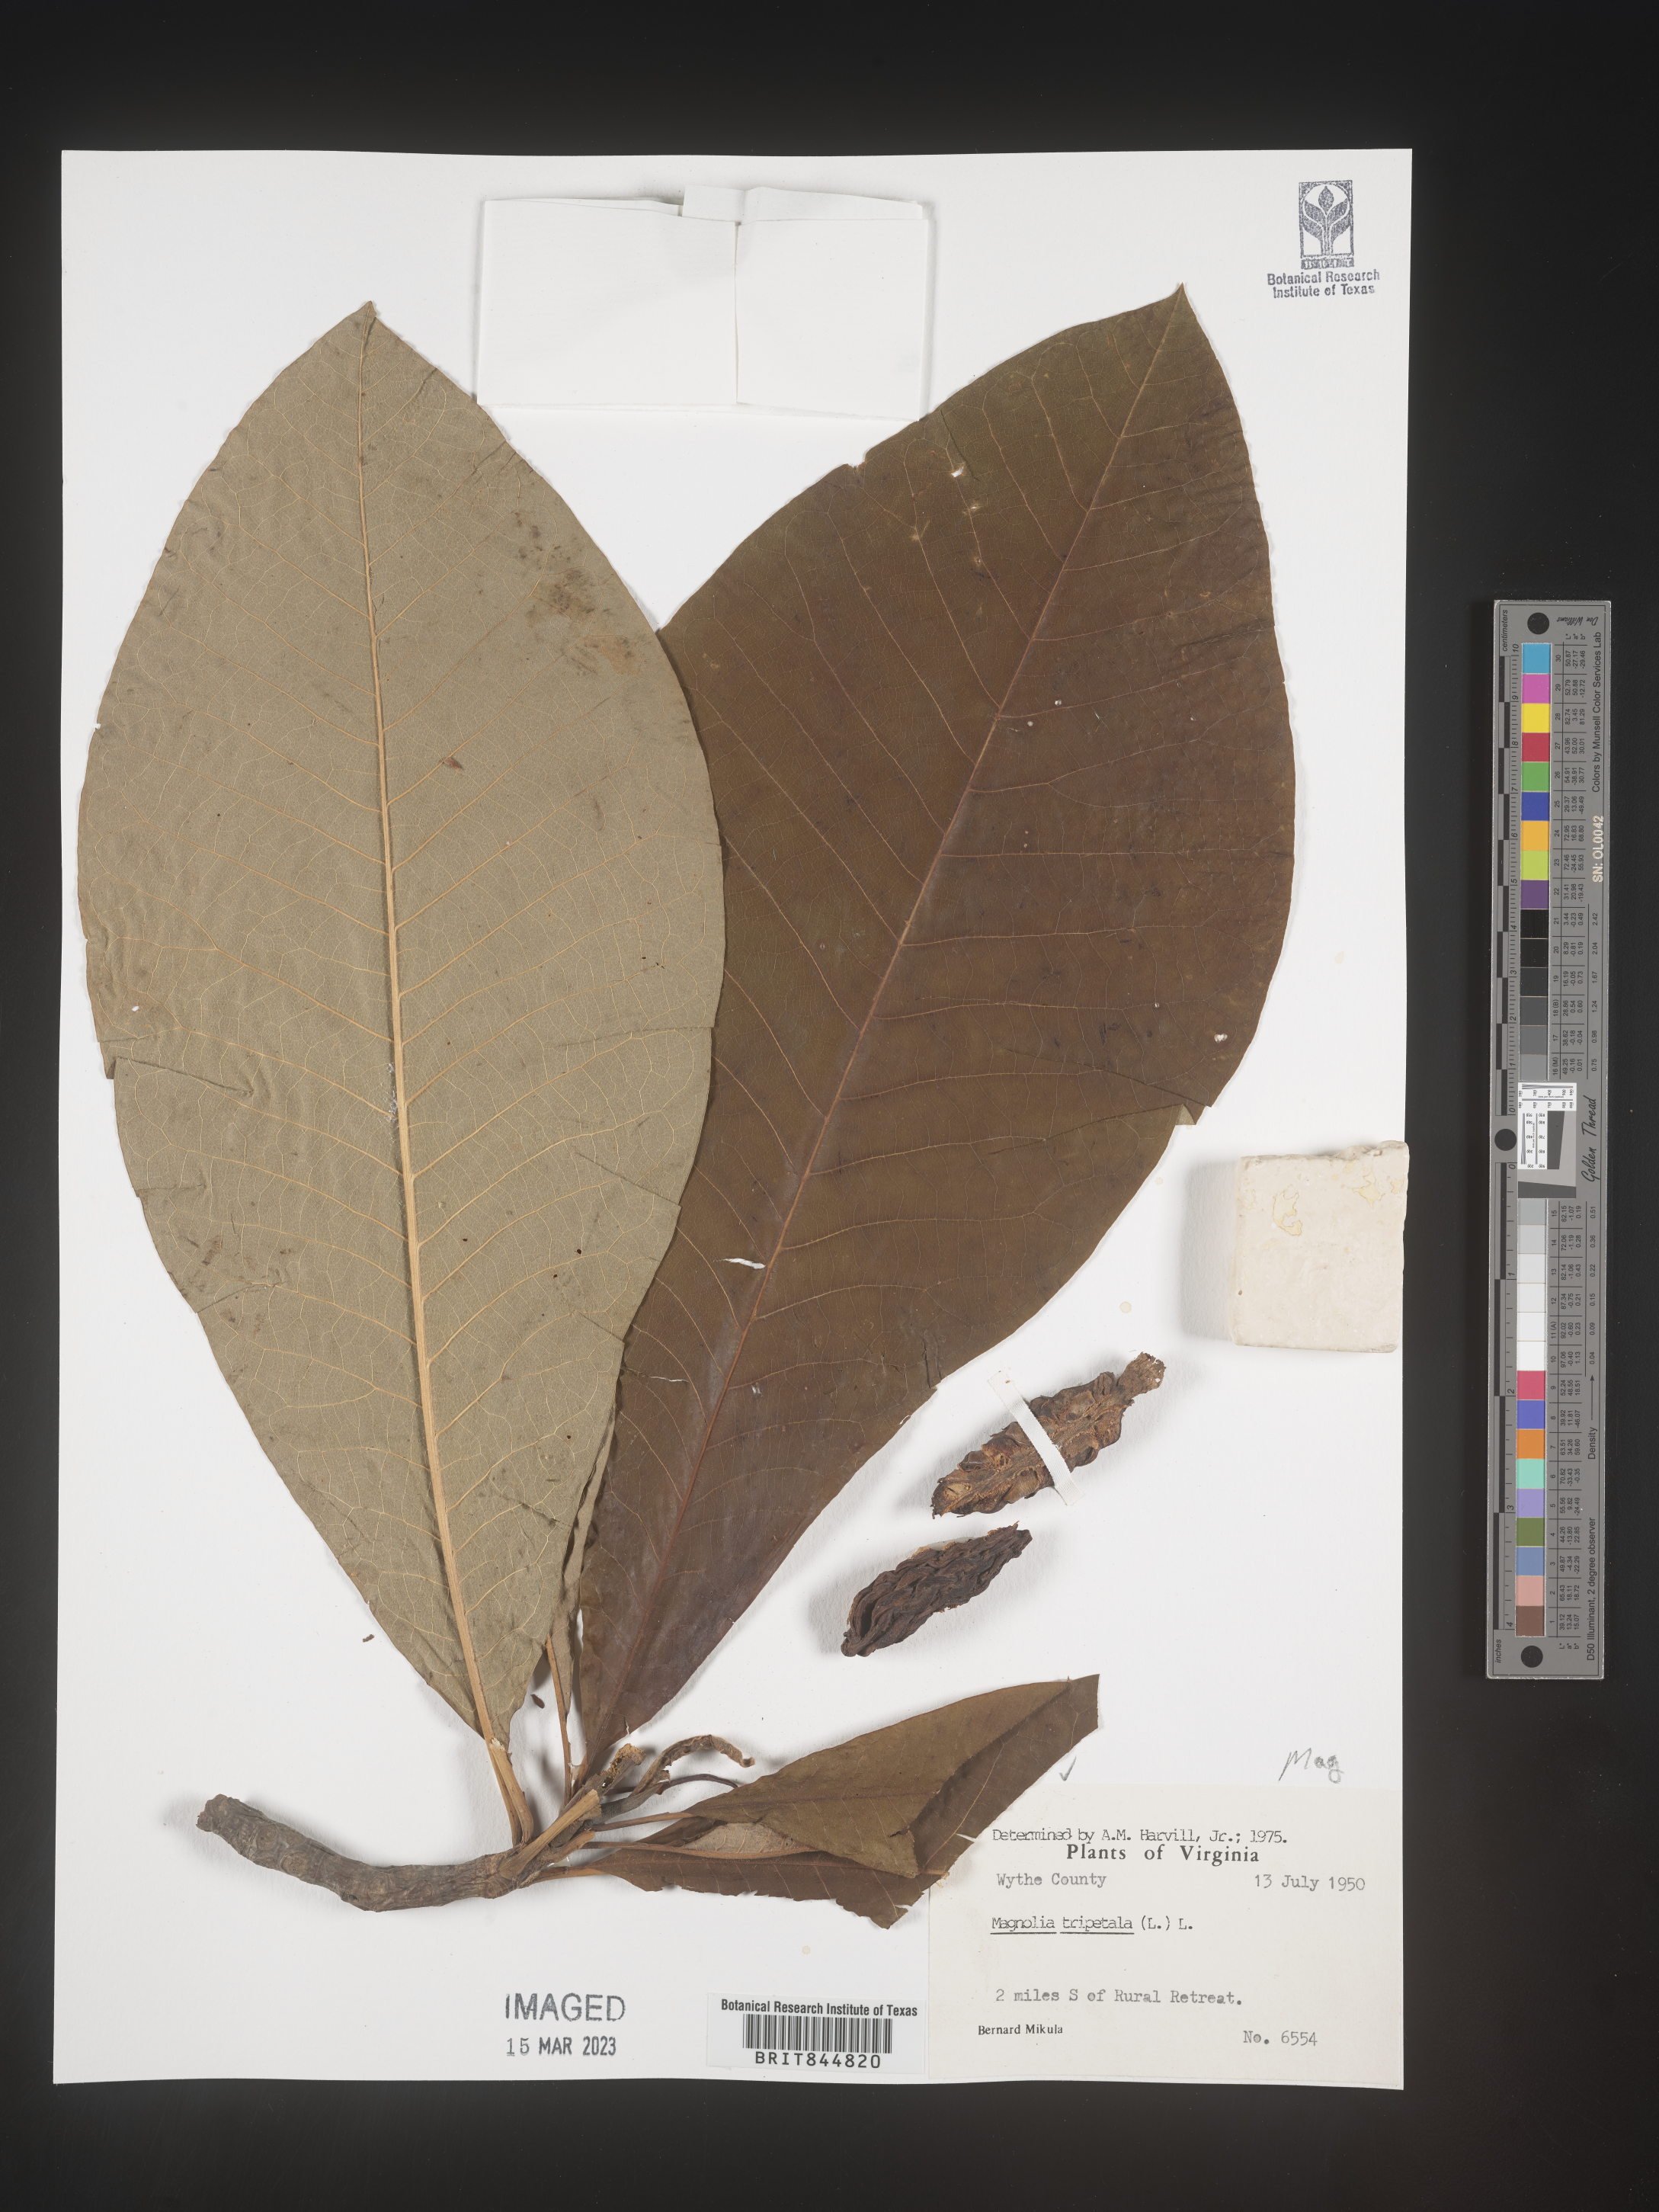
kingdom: Plantae
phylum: Tracheophyta
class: Magnoliopsida
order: Magnoliales
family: Magnoliaceae
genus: Magnolia
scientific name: Magnolia tripetala
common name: Umbrella magnolia
